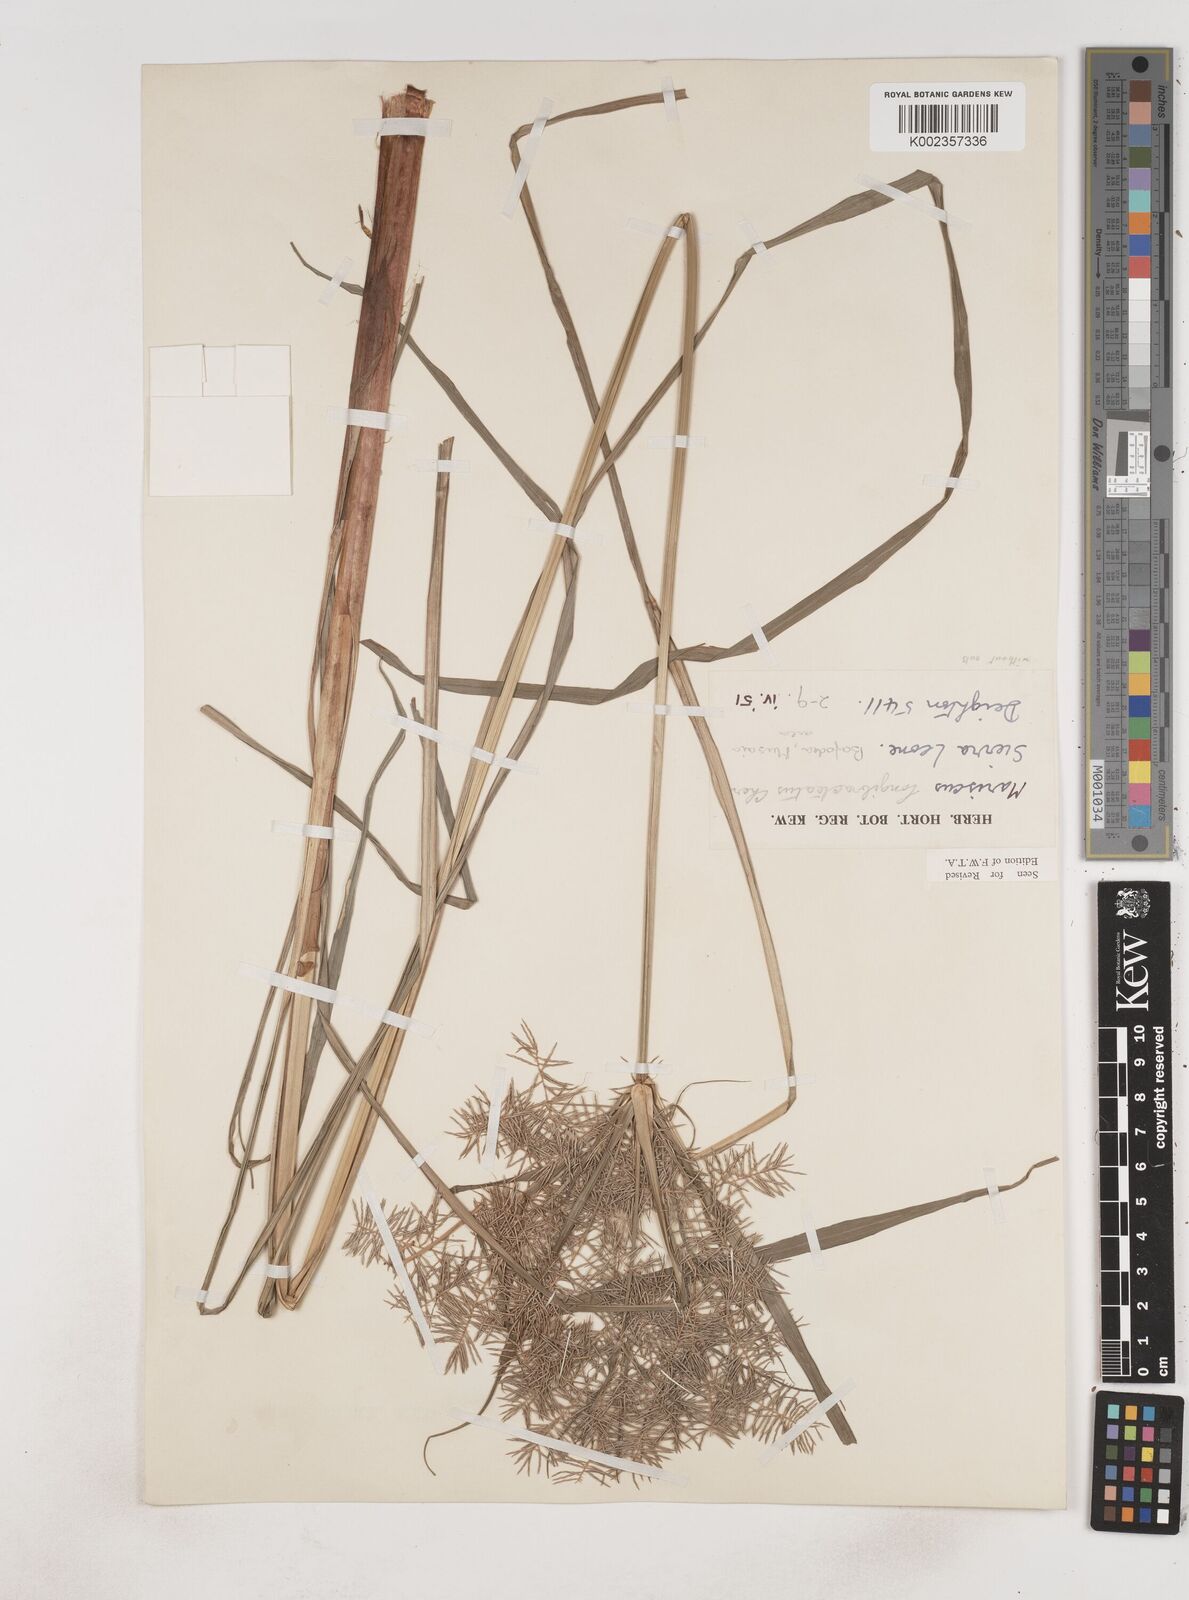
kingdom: Plantae
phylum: Tracheophyta
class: Liliopsida
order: Poales
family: Cyperaceae
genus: Cyperus
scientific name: Cyperus distans
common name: Slender cyperus
